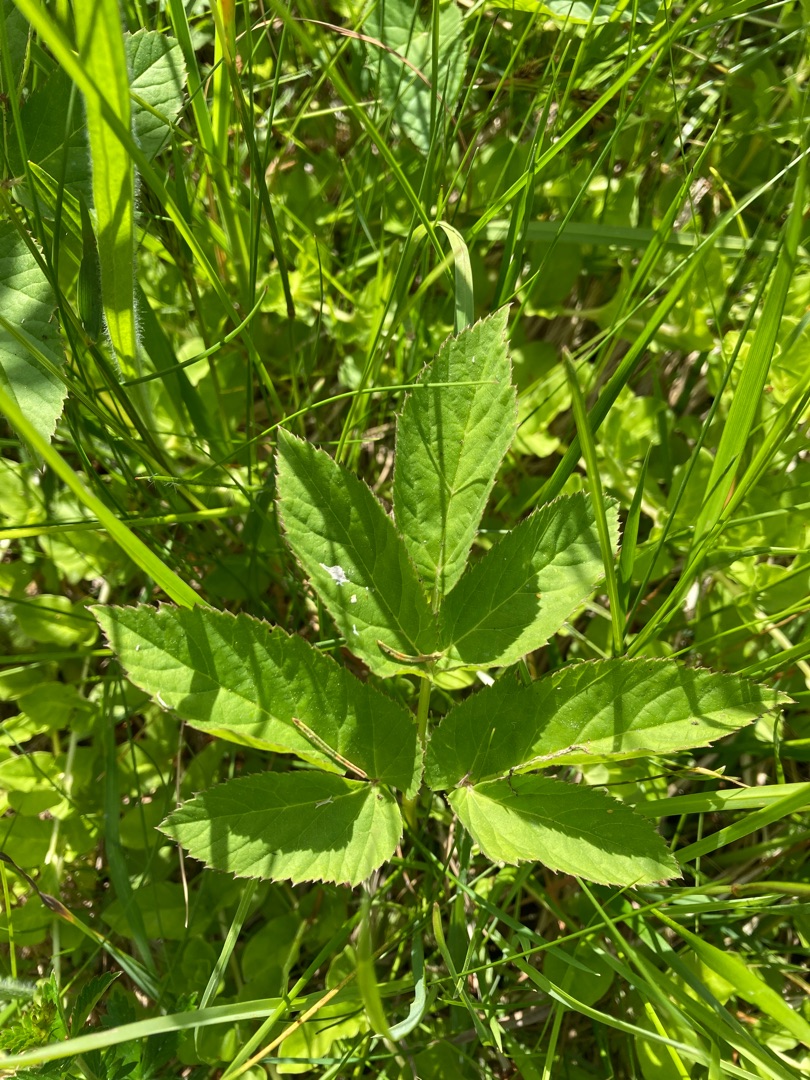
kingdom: Plantae
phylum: Tracheophyta
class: Magnoliopsida
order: Apiales
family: Apiaceae
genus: Aegopodium
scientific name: Aegopodium podagraria
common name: Skvalderkål
